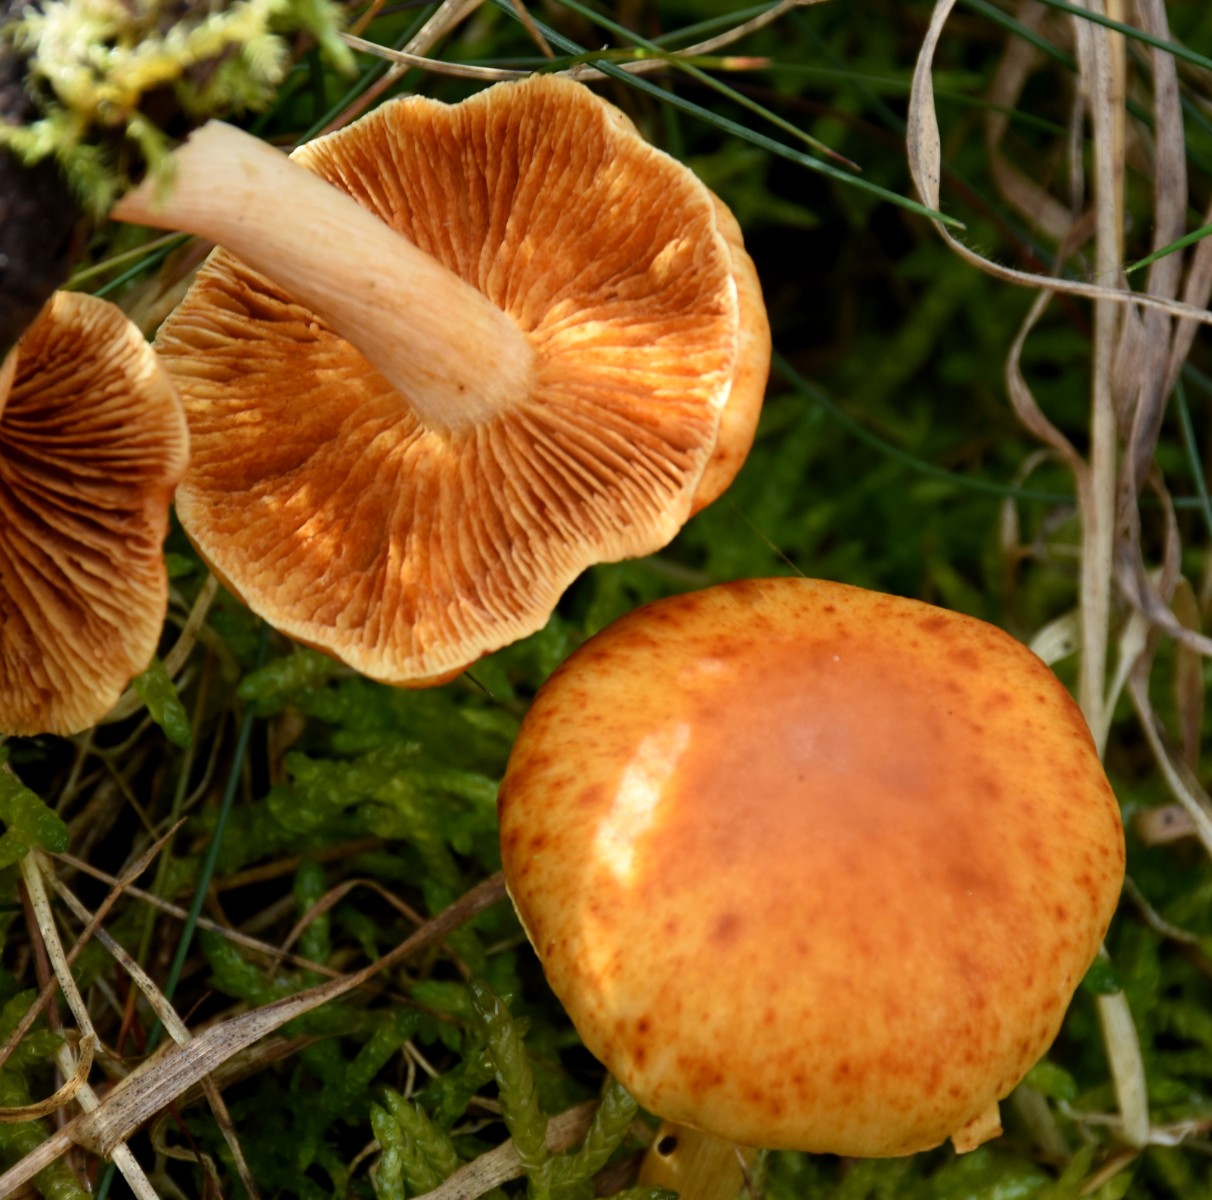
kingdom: Fungi
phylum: Basidiomycota
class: Agaricomycetes
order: Agaricales
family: Hymenogastraceae
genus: Gymnopilus
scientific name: Gymnopilus penetrans
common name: plettet flammehat
